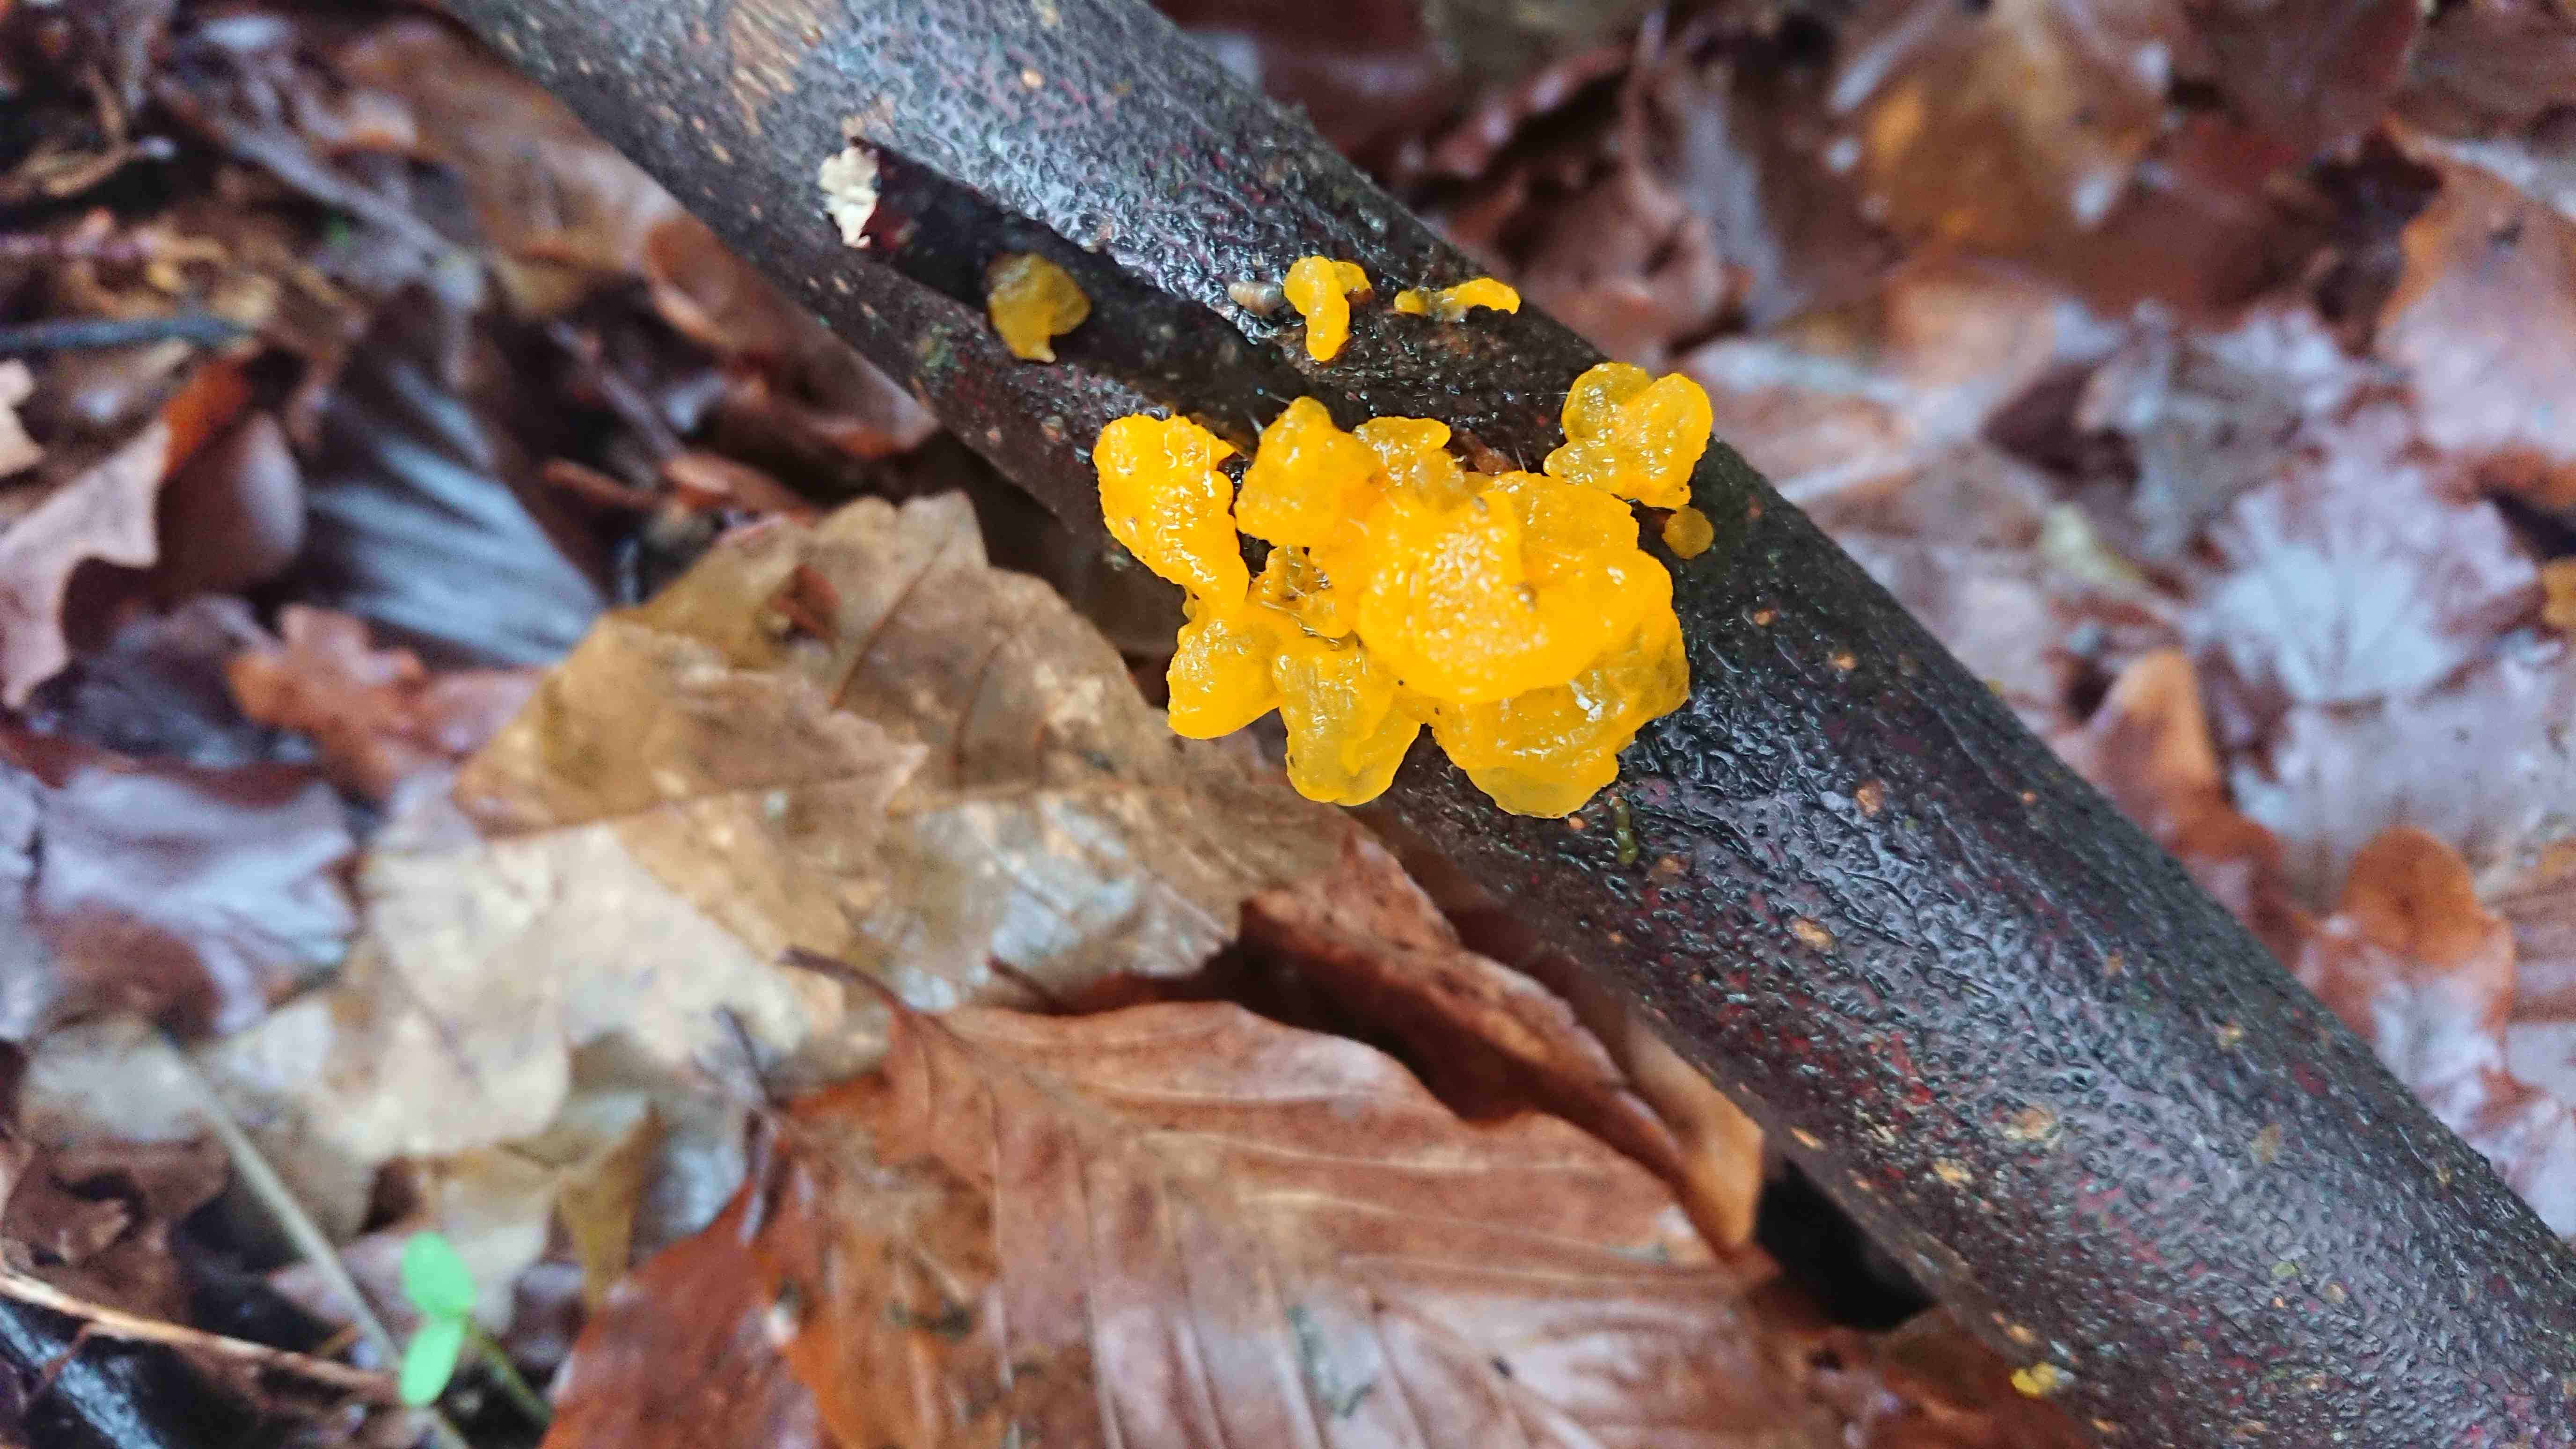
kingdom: Fungi
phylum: Basidiomycota
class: Tremellomycetes
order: Tremellales
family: Tremellaceae
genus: Tremella
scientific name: Tremella mesenterica
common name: gul bævresvamp
